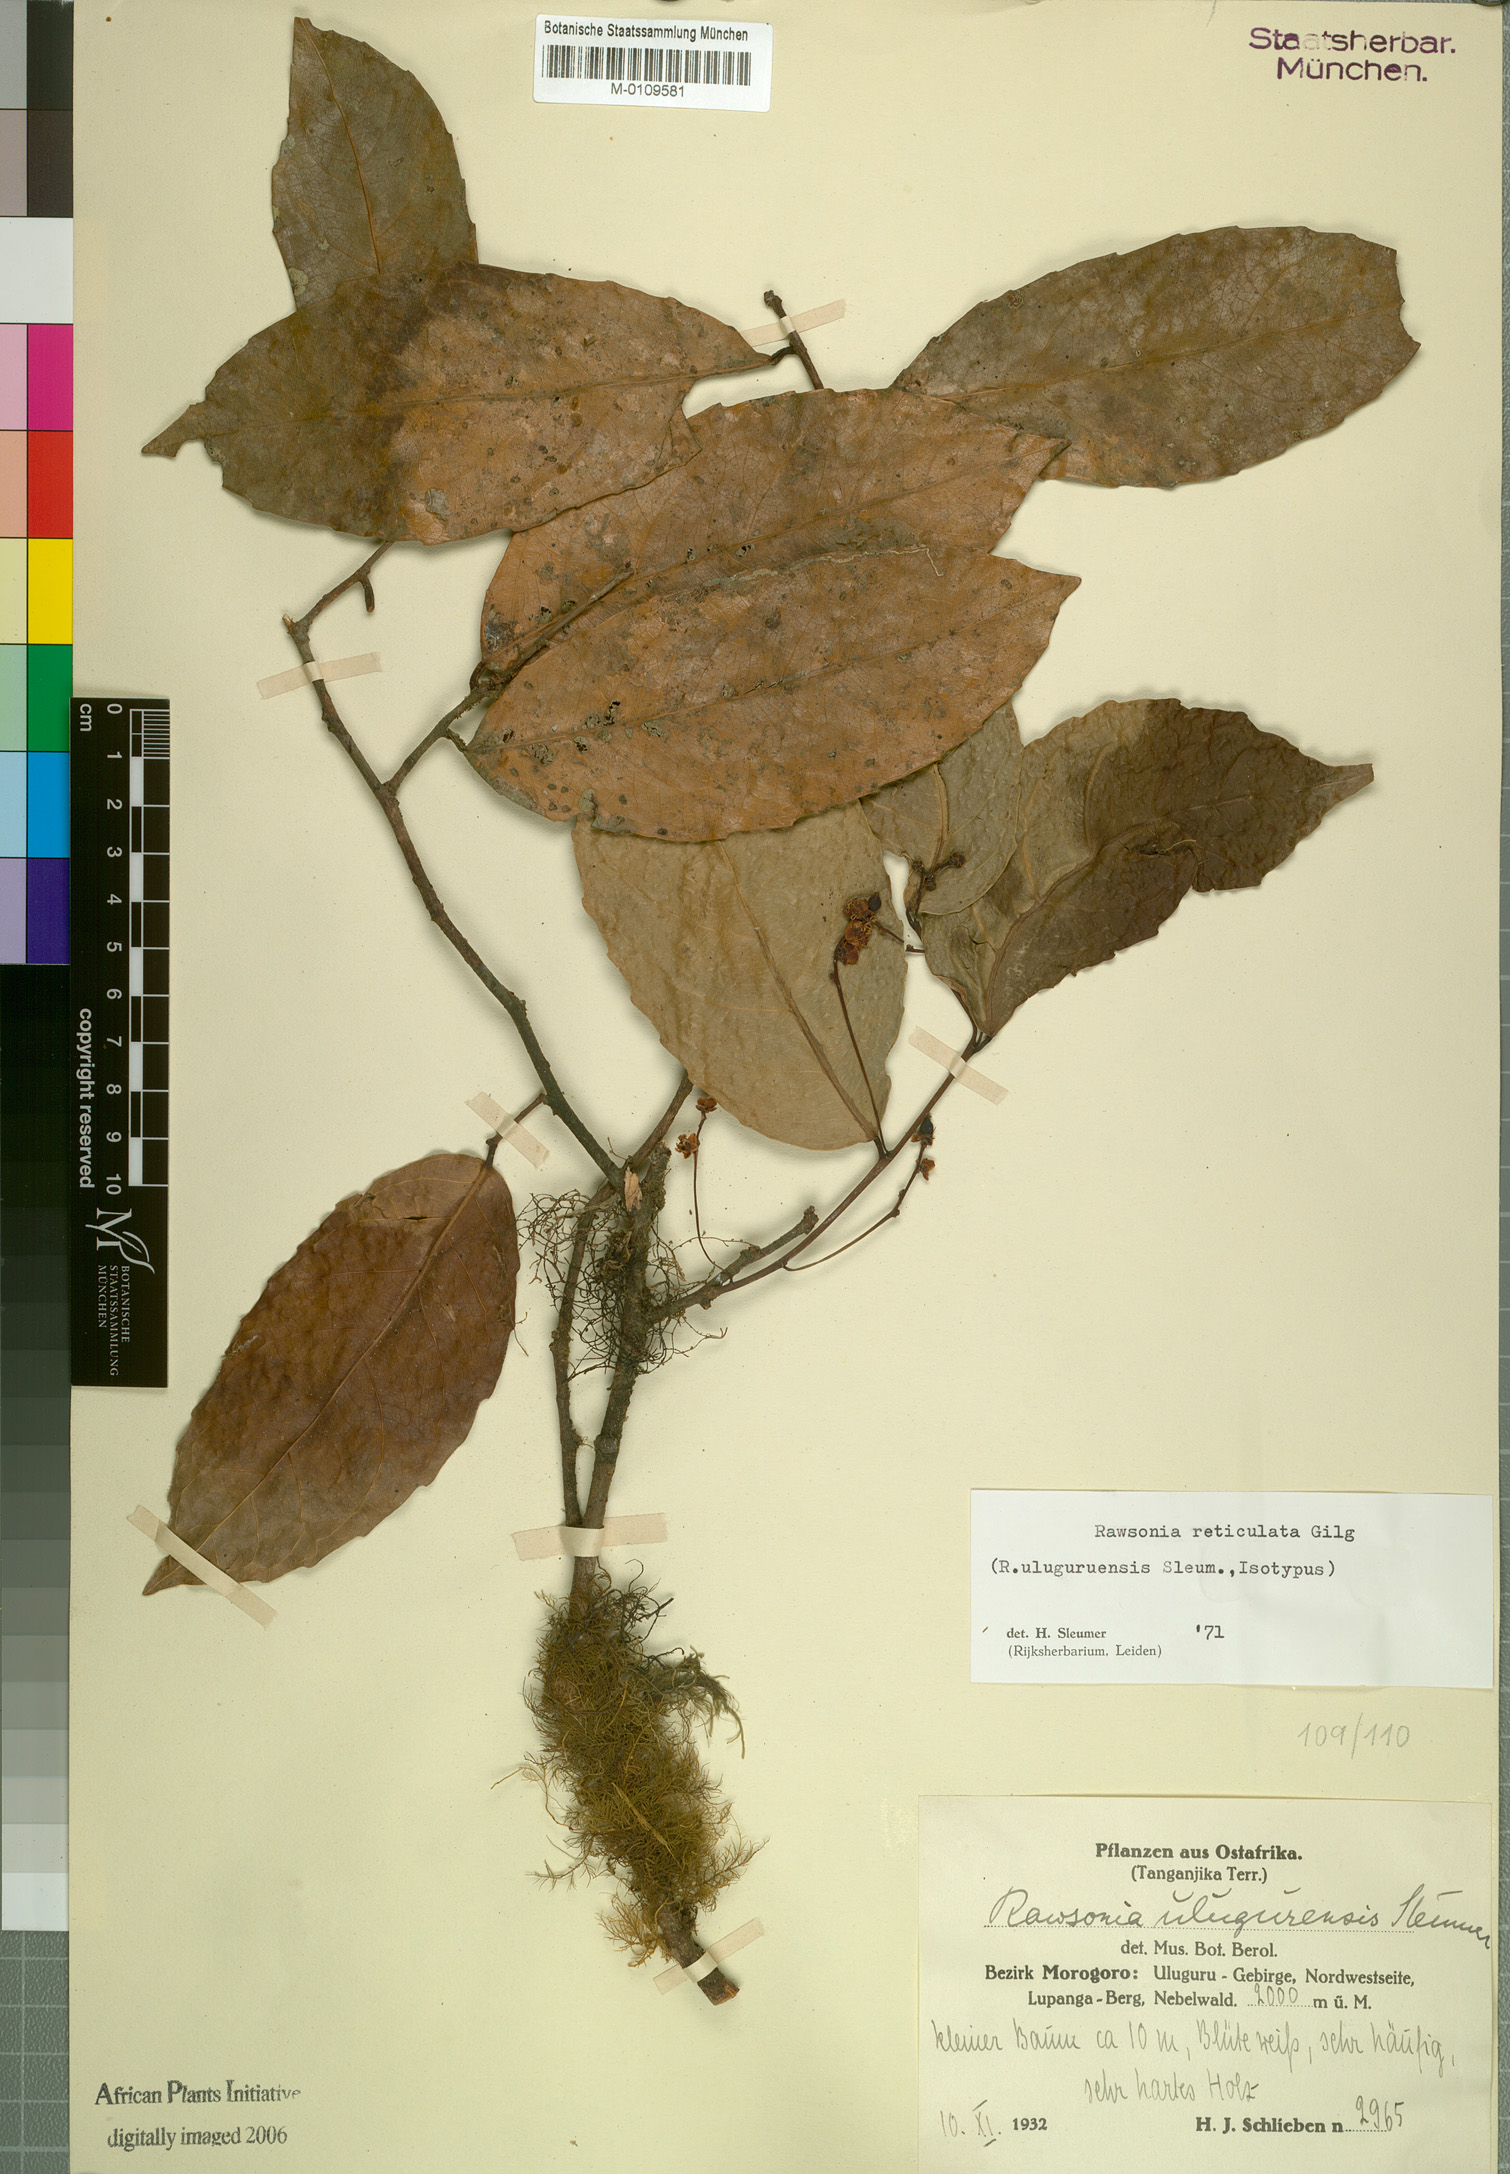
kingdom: Plantae
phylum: Tracheophyta
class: Magnoliopsida
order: Malpighiales
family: Achariaceae
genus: Rawsonia
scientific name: Rawsonia lucida
